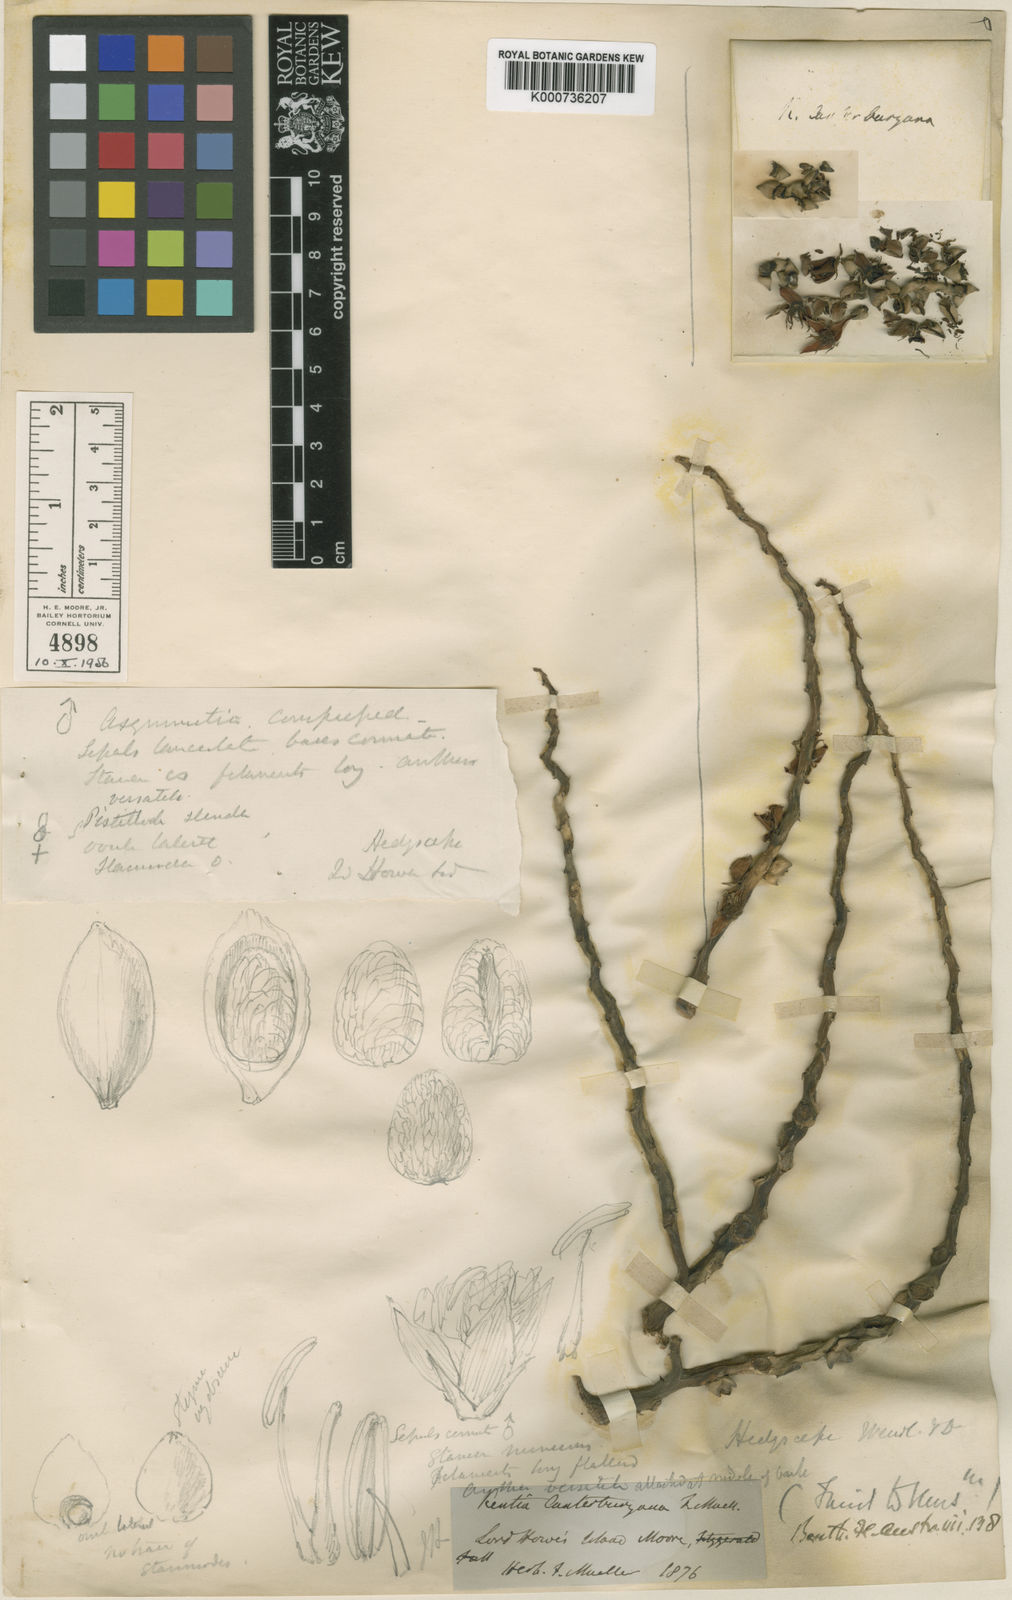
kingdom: Plantae
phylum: Tracheophyta
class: Liliopsida
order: Arecales
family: Arecaceae
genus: Hedyscepe
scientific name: Hedyscepe canterburyana
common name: Umbrella palm
